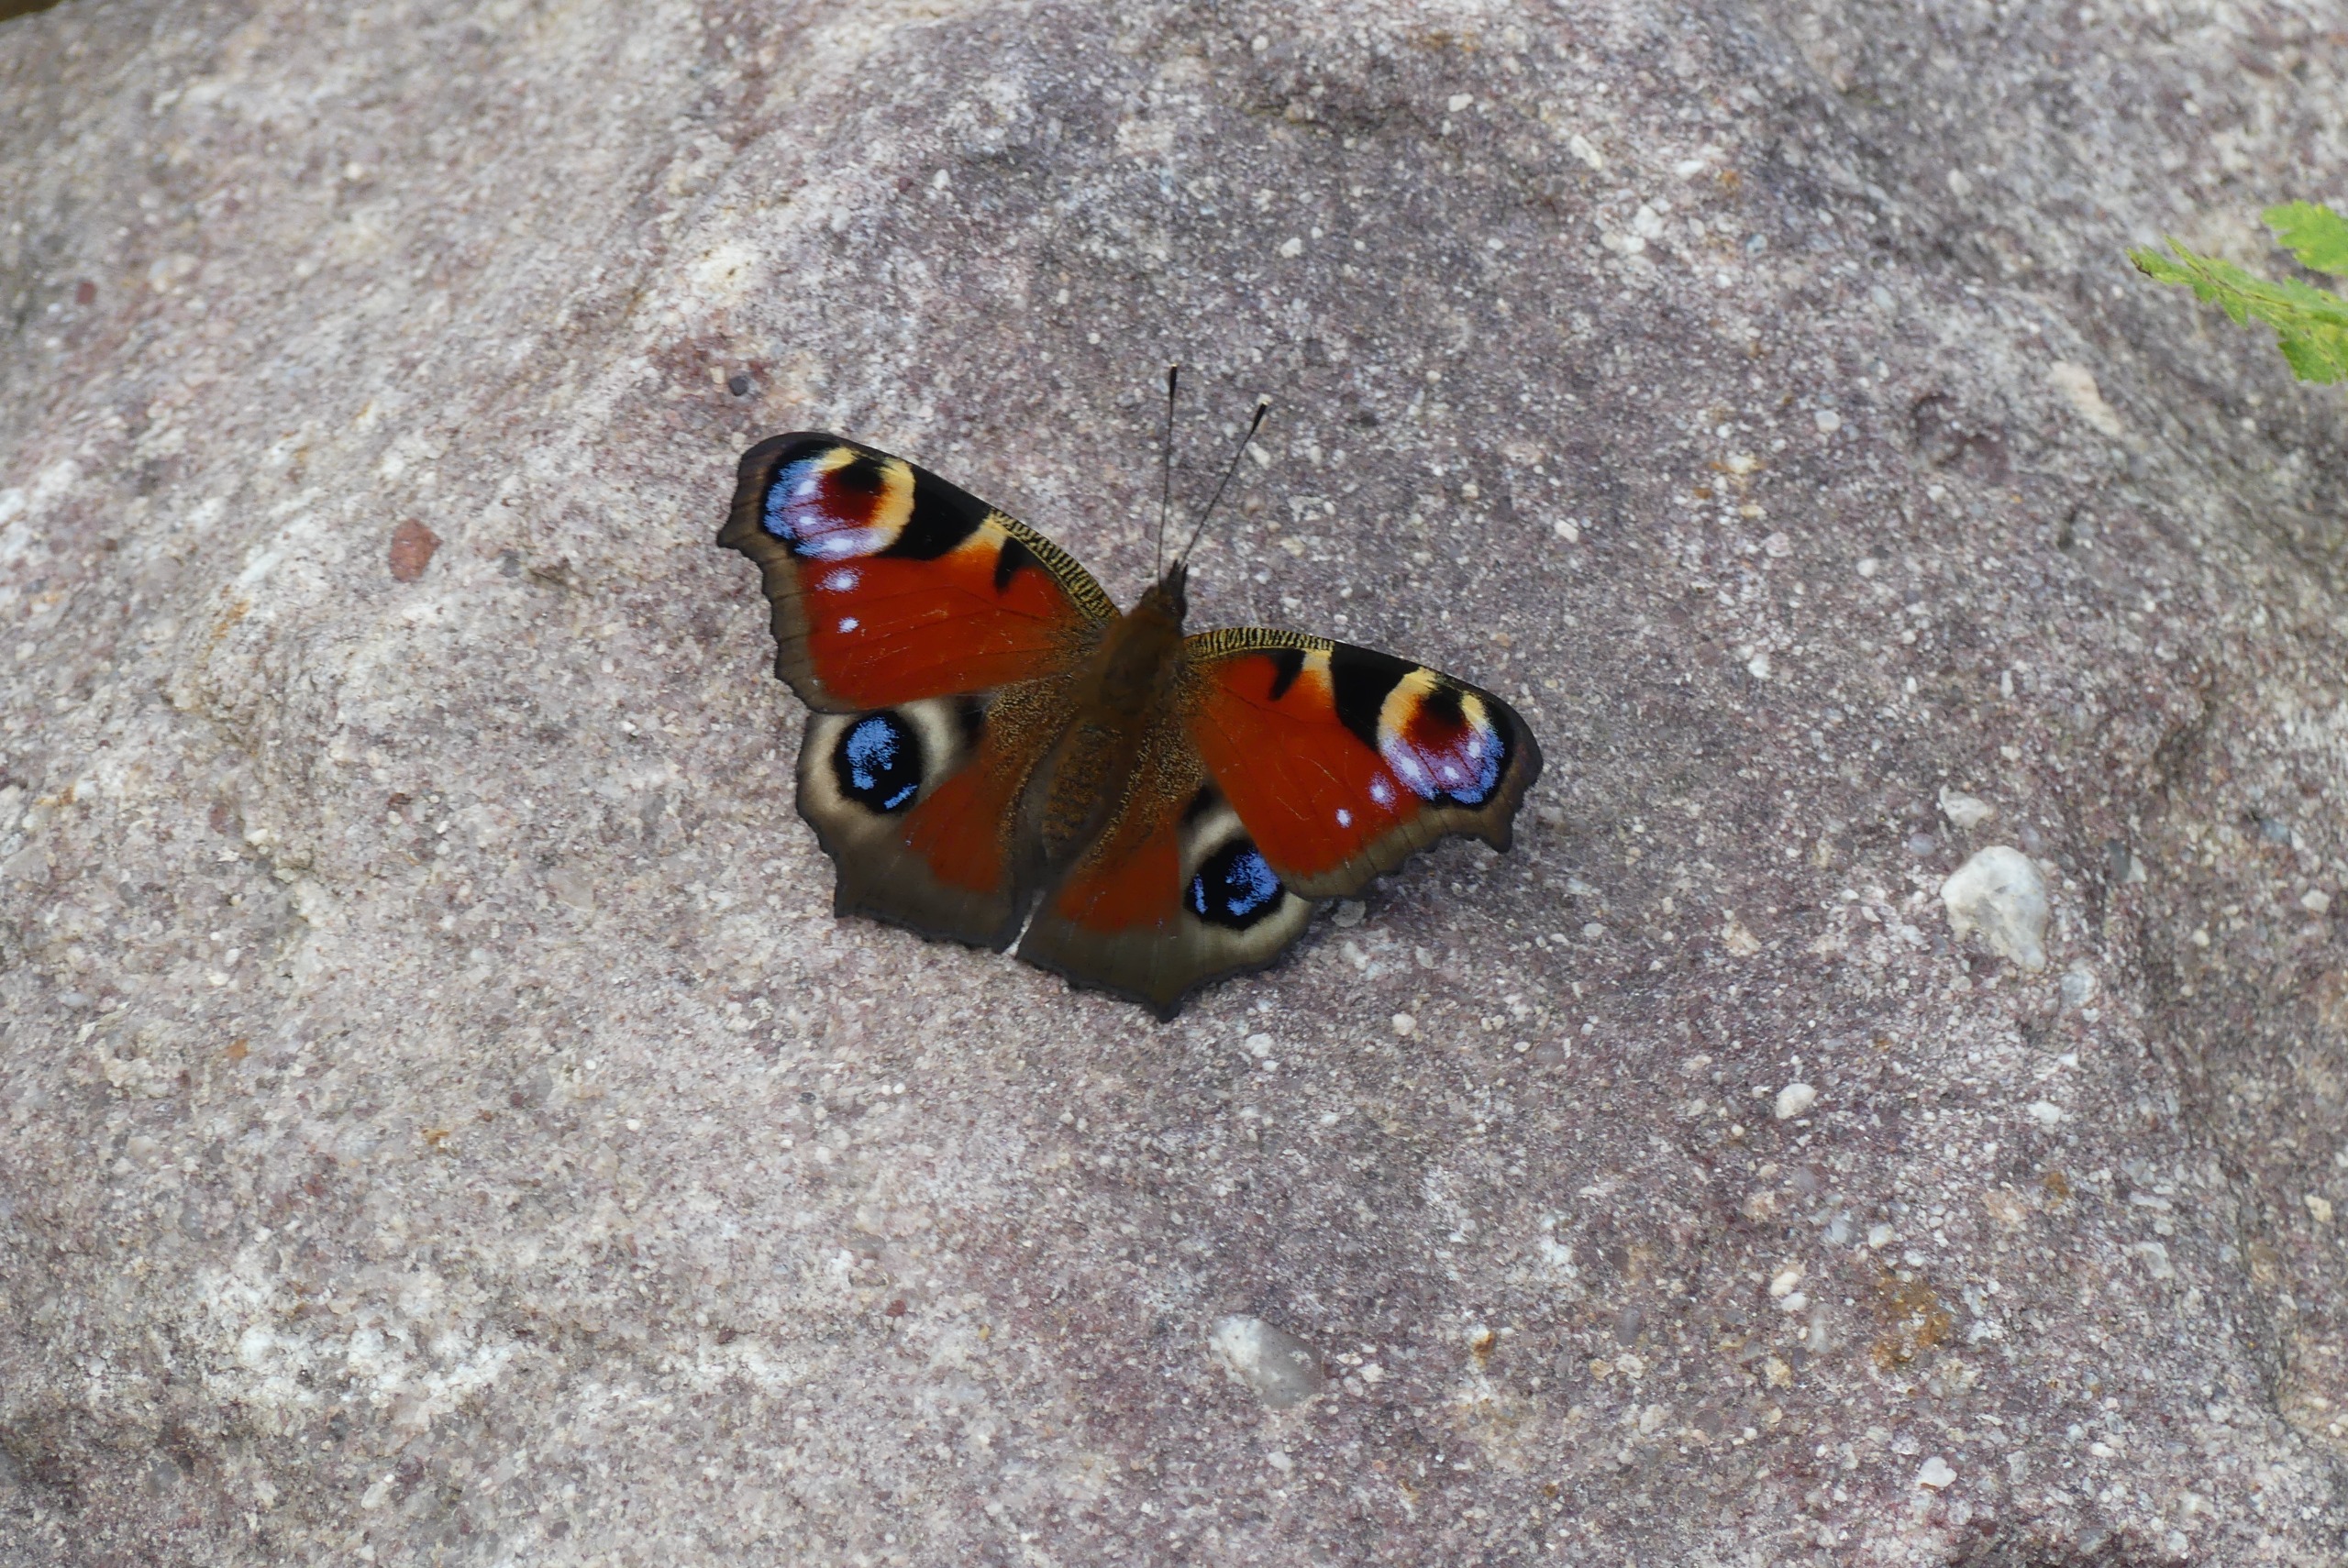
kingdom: Animalia
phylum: Arthropoda
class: Insecta
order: Lepidoptera
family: Nymphalidae
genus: Aglais
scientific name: Aglais io
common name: Dagpåfugleøje
